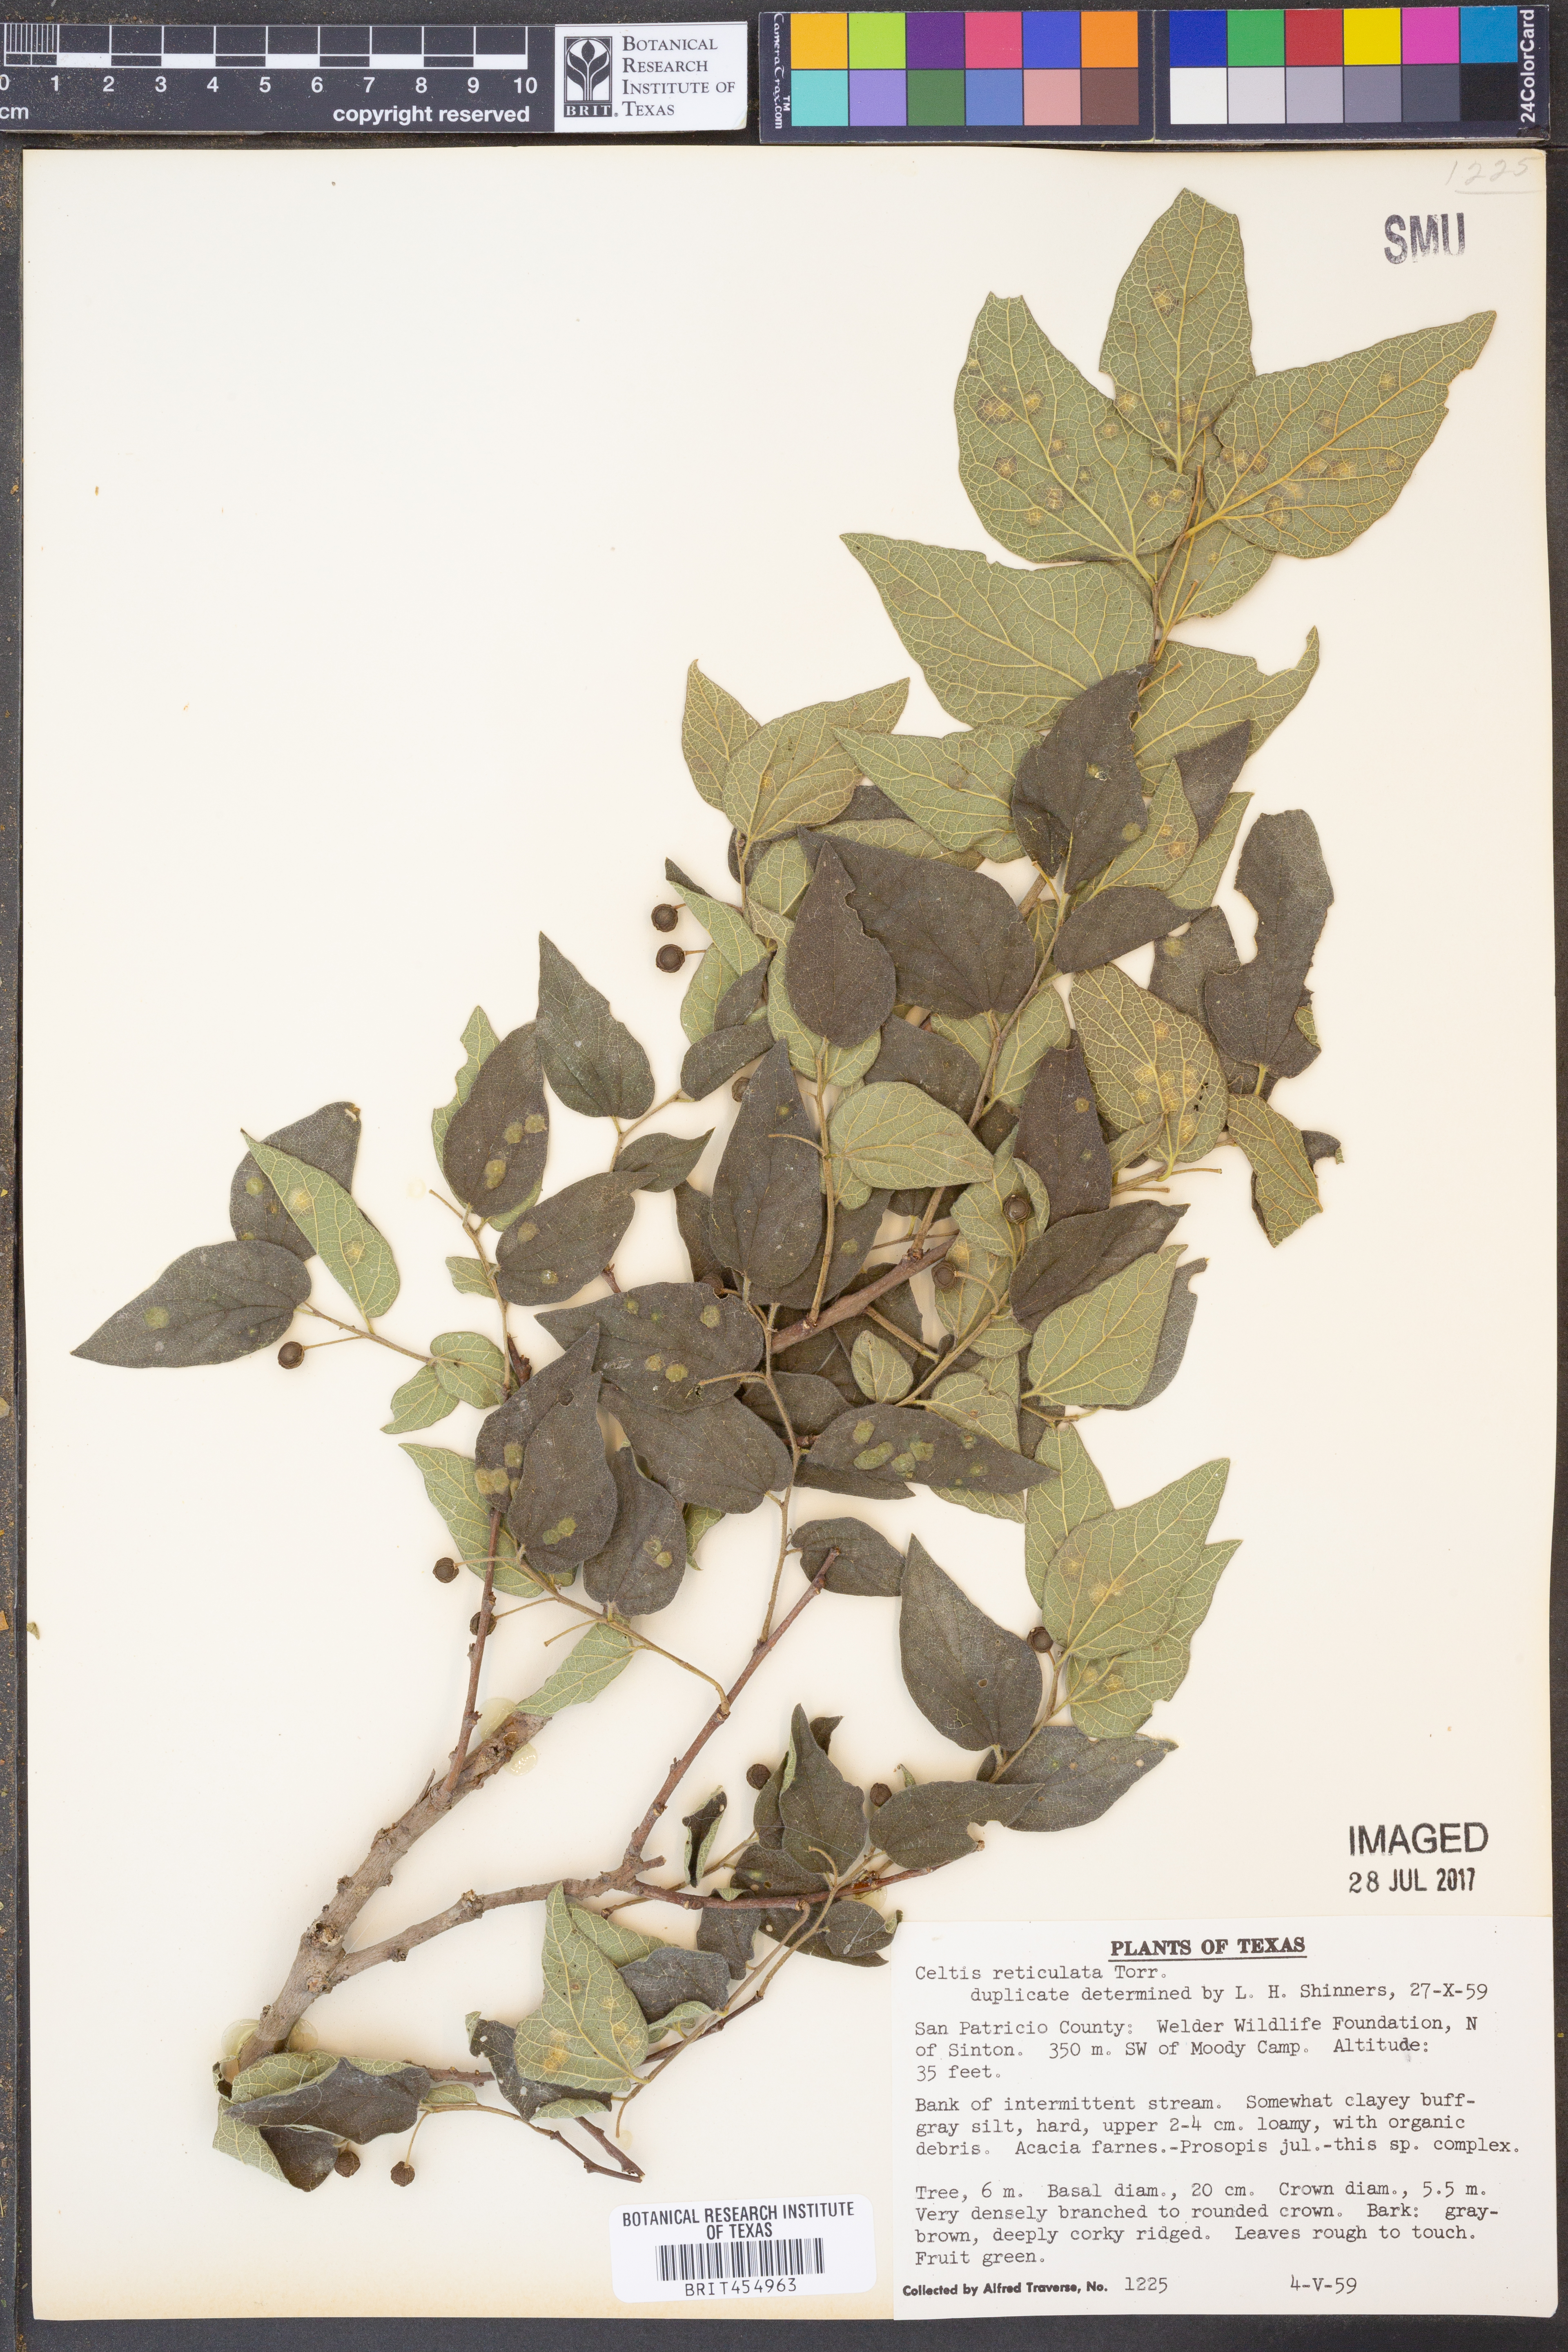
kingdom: Plantae
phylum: Tracheophyta
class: Magnoliopsida
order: Rosales
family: Cannabaceae
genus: Celtis
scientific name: Celtis reticulata
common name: Netleaf hackberry
